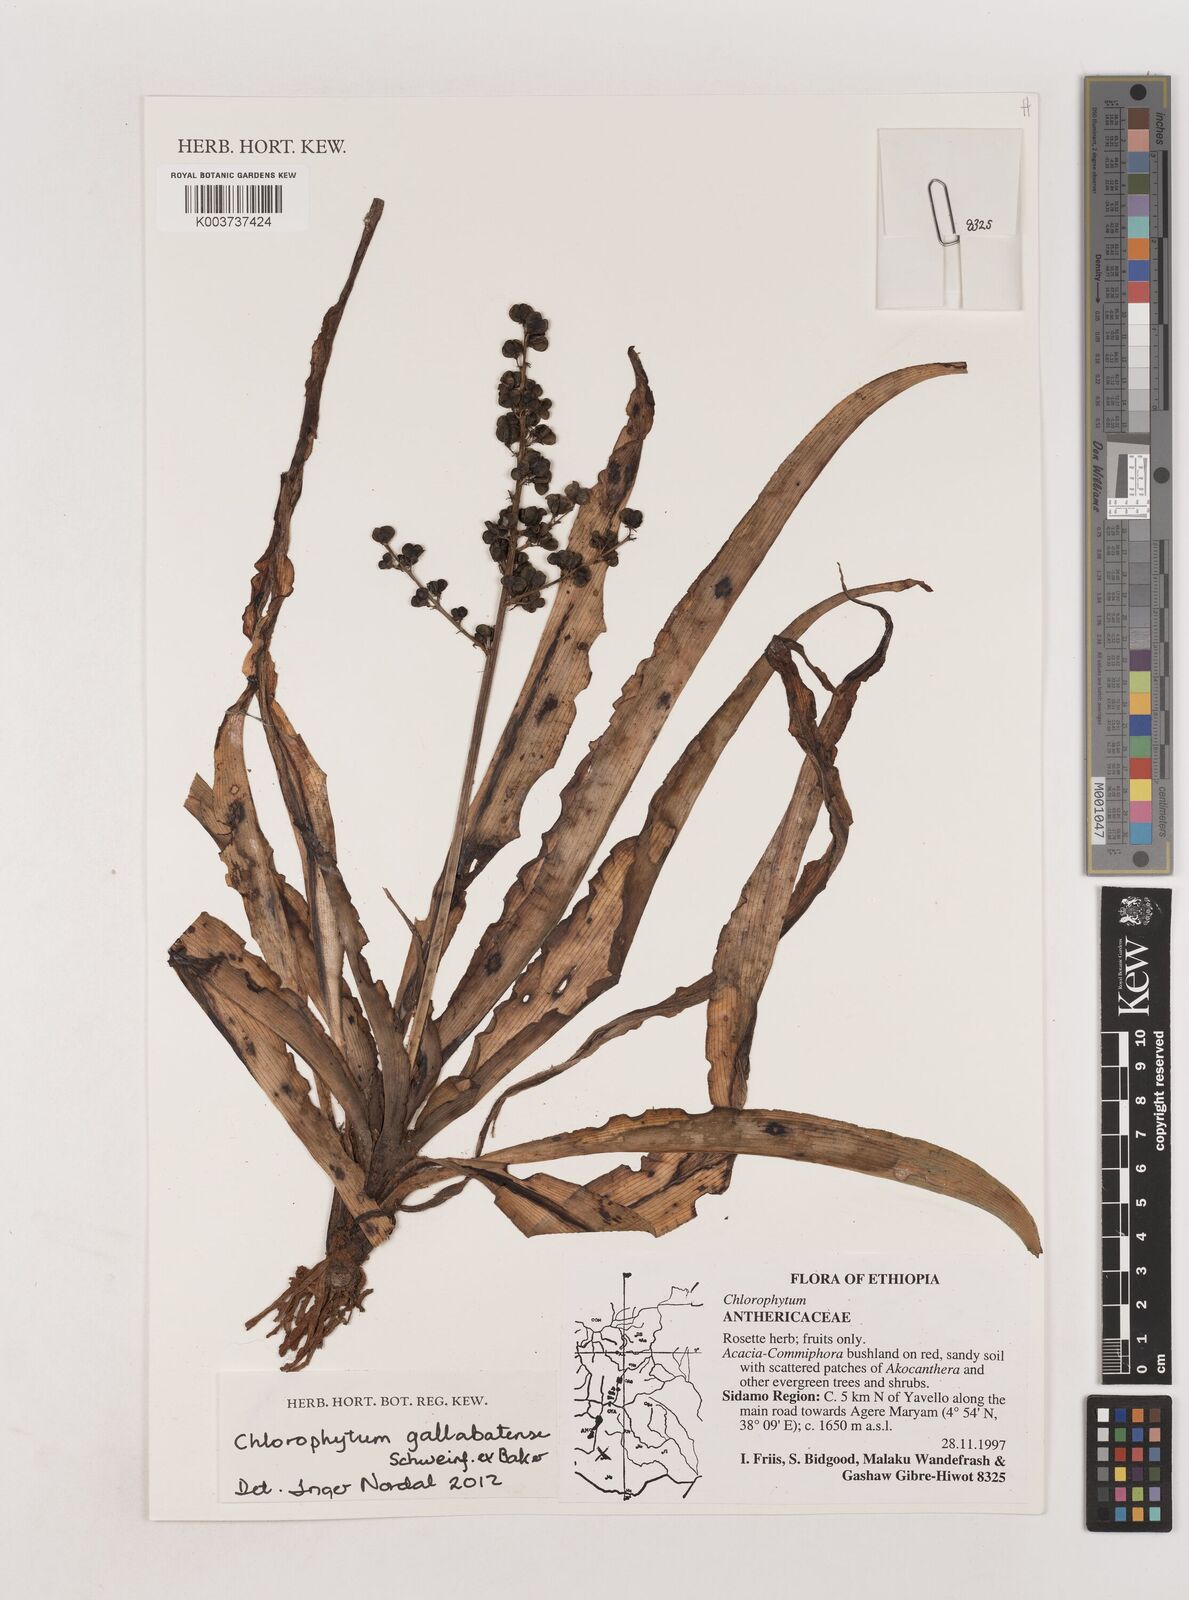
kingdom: Plantae
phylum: Tracheophyta
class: Liliopsida
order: Asparagales
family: Asparagaceae
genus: Chlorophytum
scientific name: Chlorophytum gallabatense
